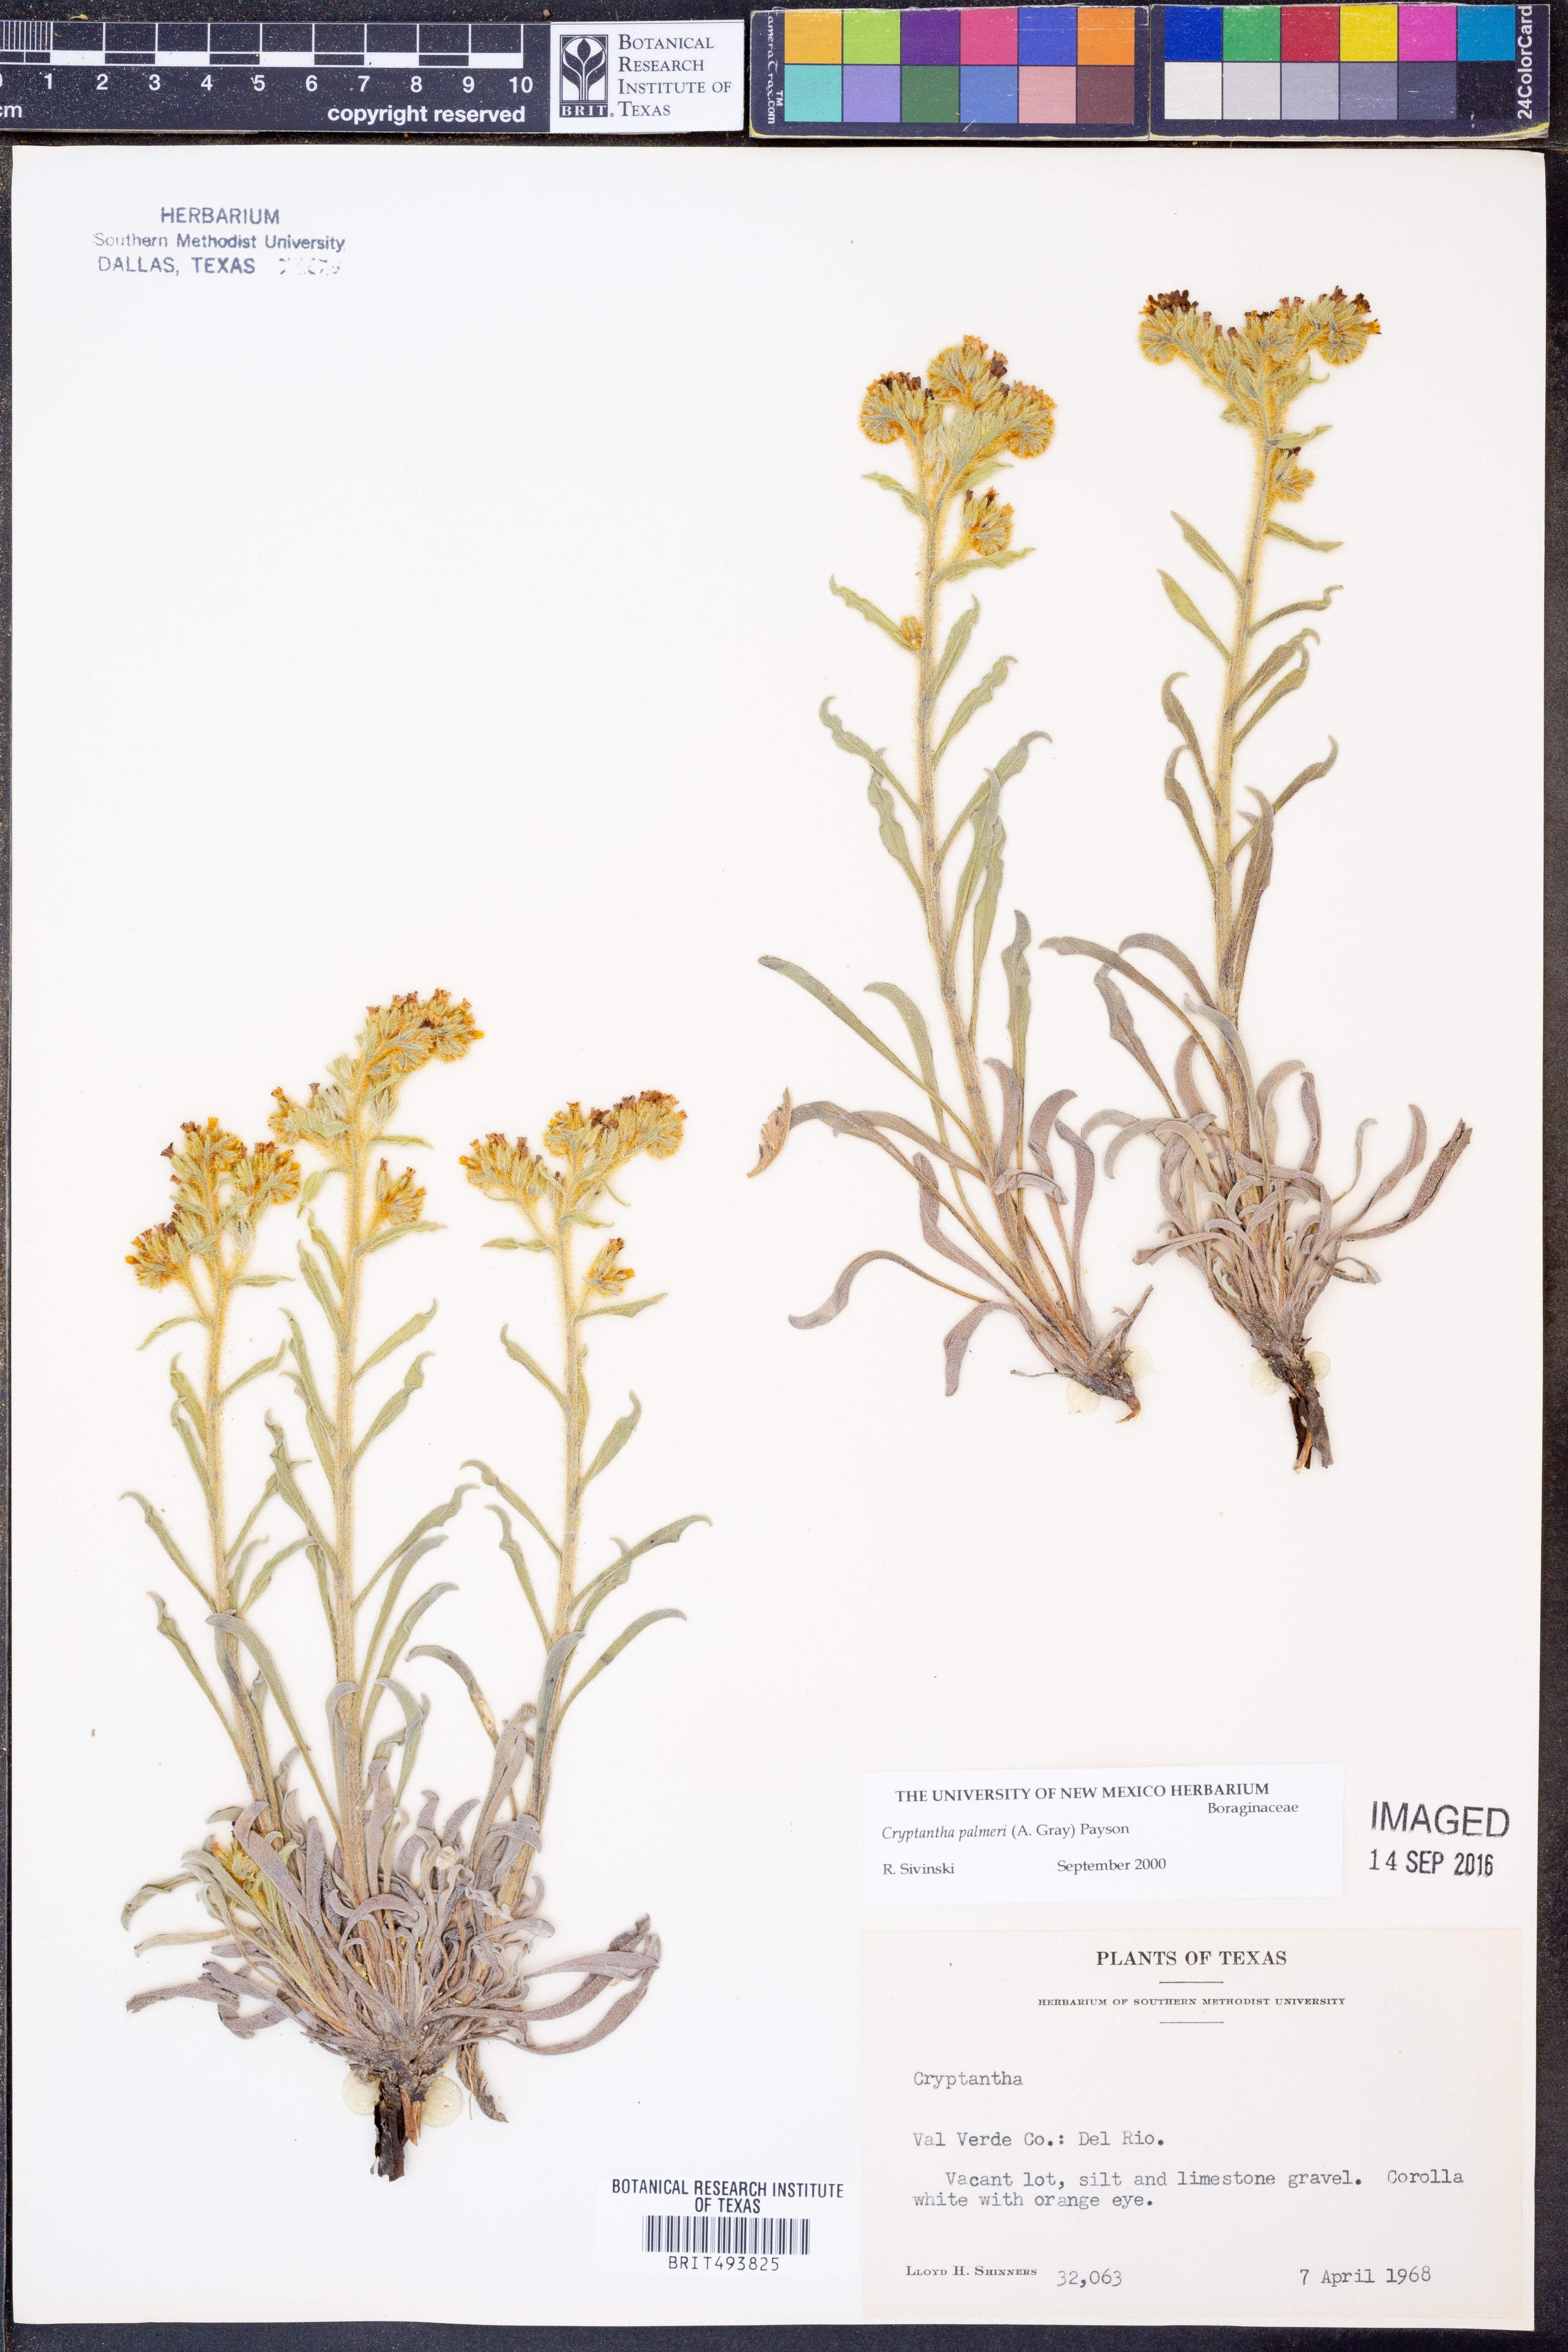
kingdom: Plantae
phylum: Tracheophyta
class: Magnoliopsida
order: Boraginales
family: Boraginaceae
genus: Oreocarya
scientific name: Oreocarya palmeri
